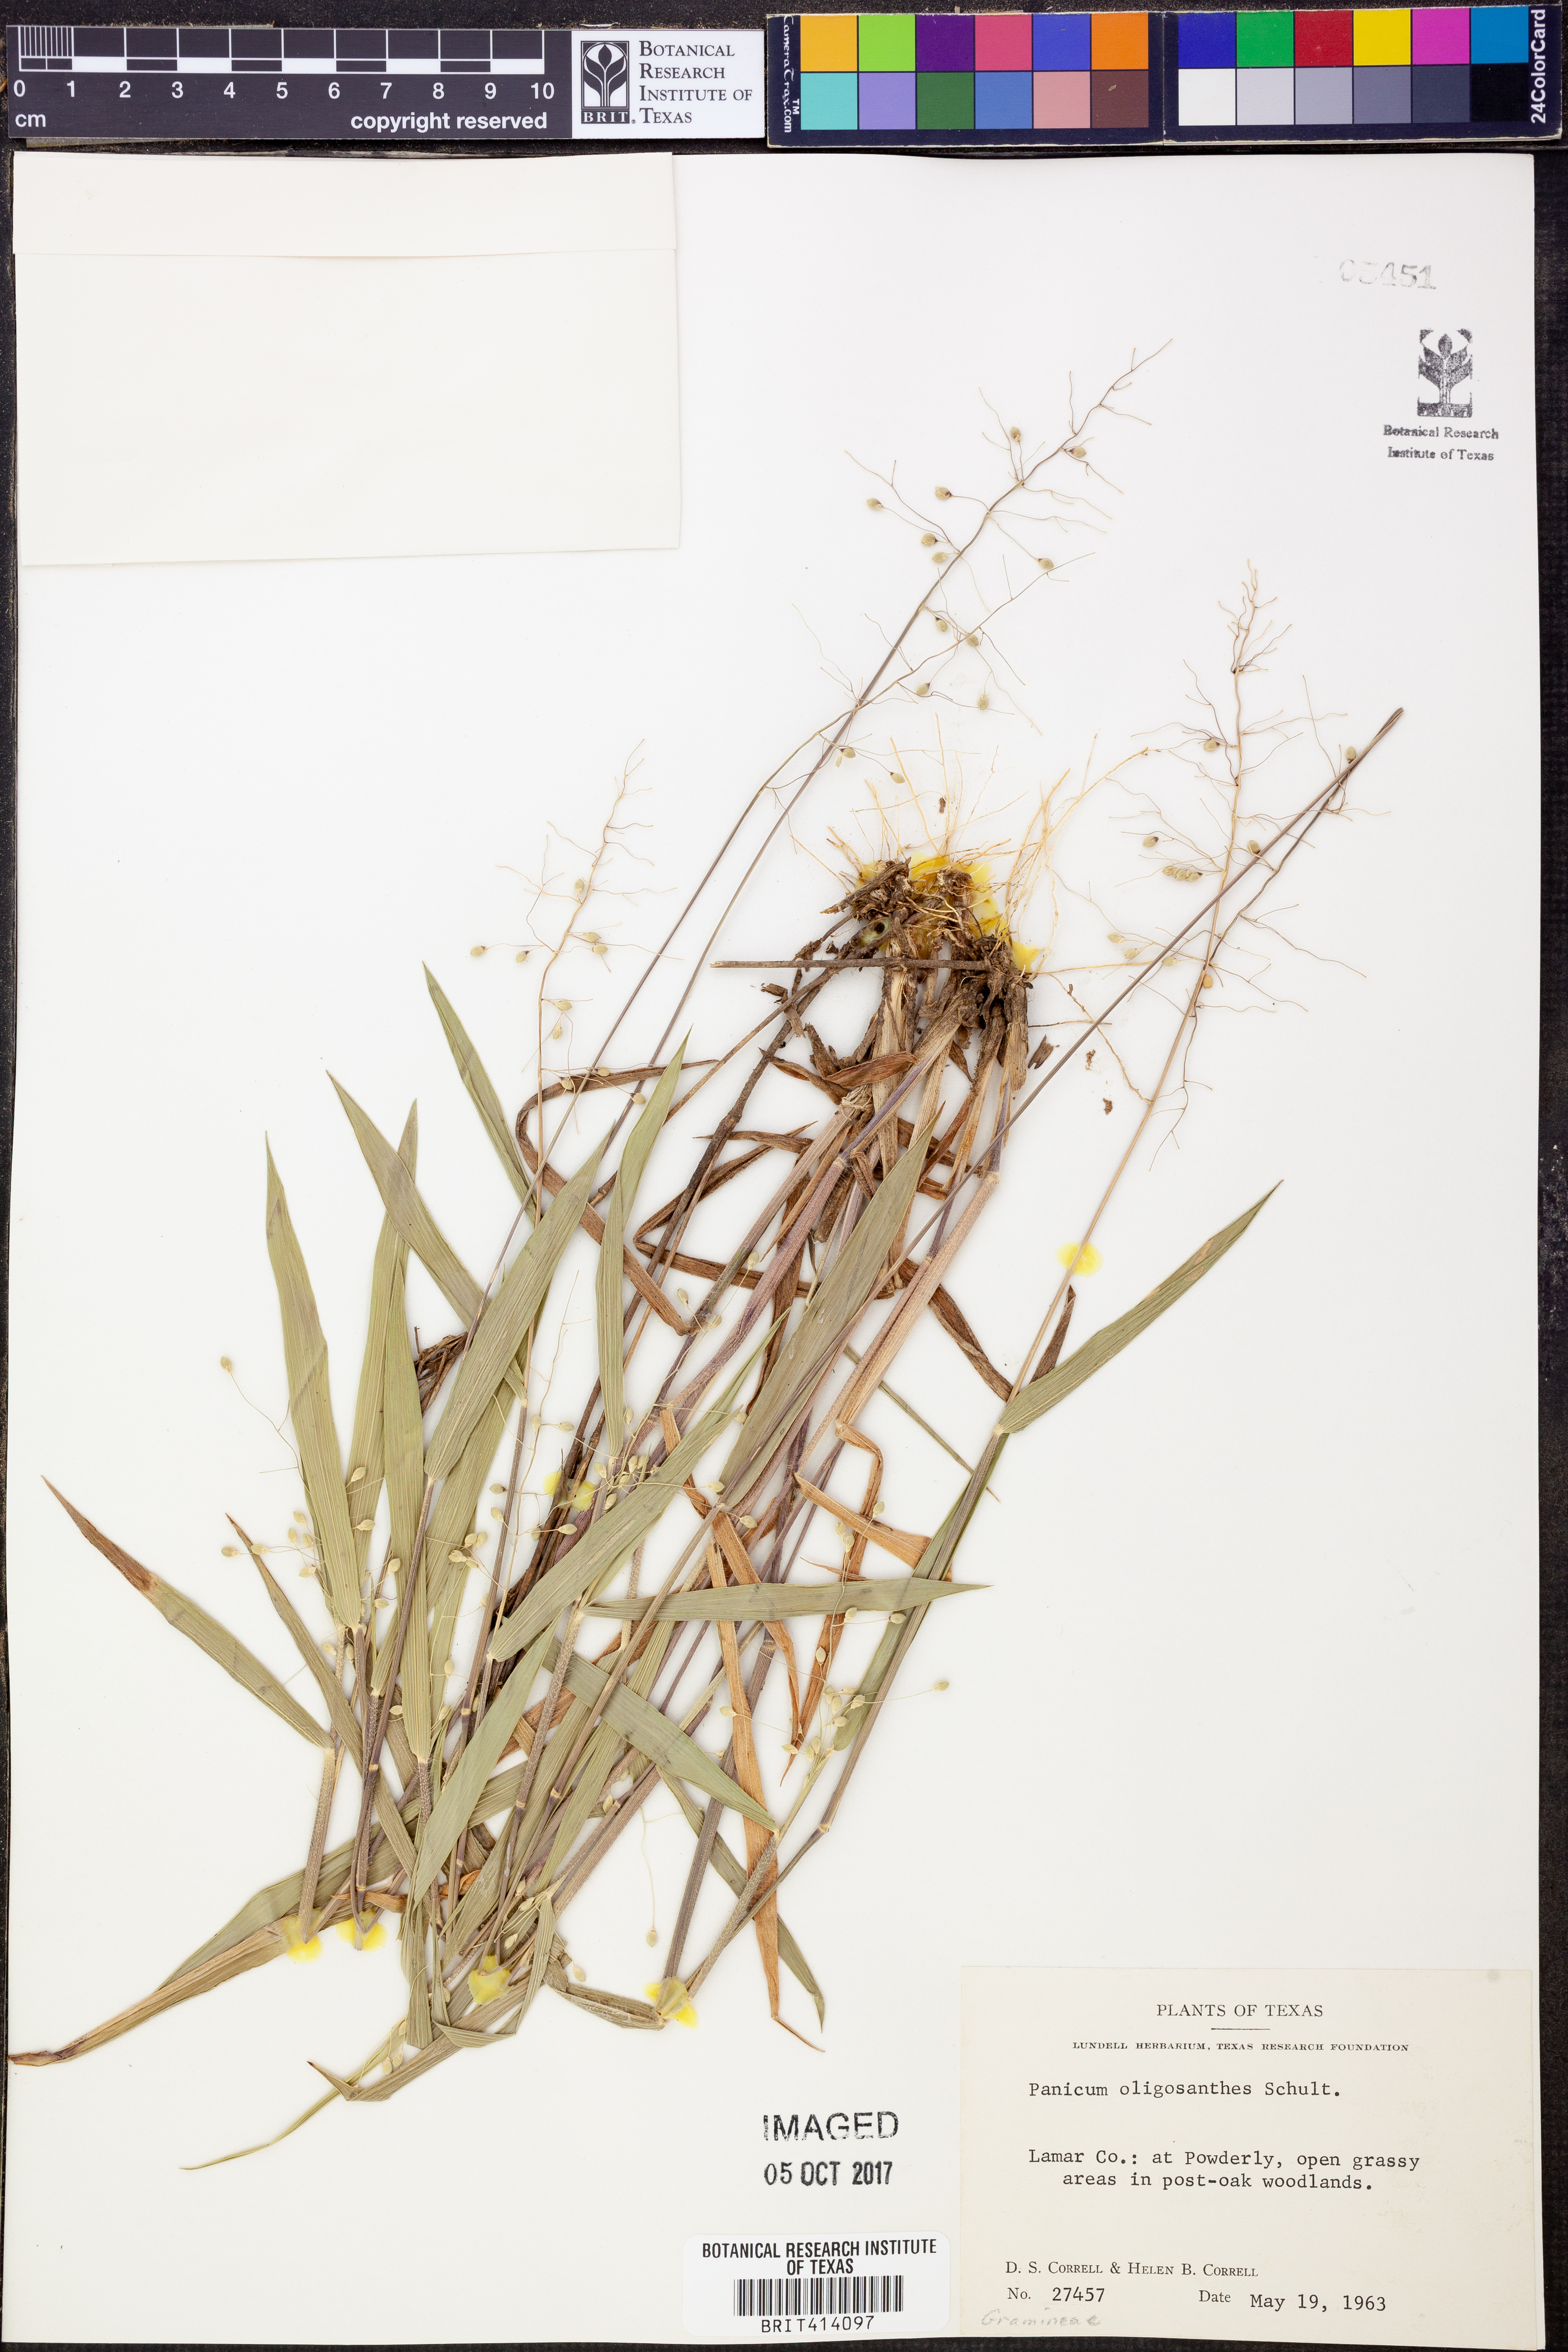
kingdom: Plantae
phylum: Tracheophyta
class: Liliopsida
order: Poales
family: Poaceae
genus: Dichanthelium
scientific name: Dichanthelium oligosanthes
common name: Few-anther obscuregrass
